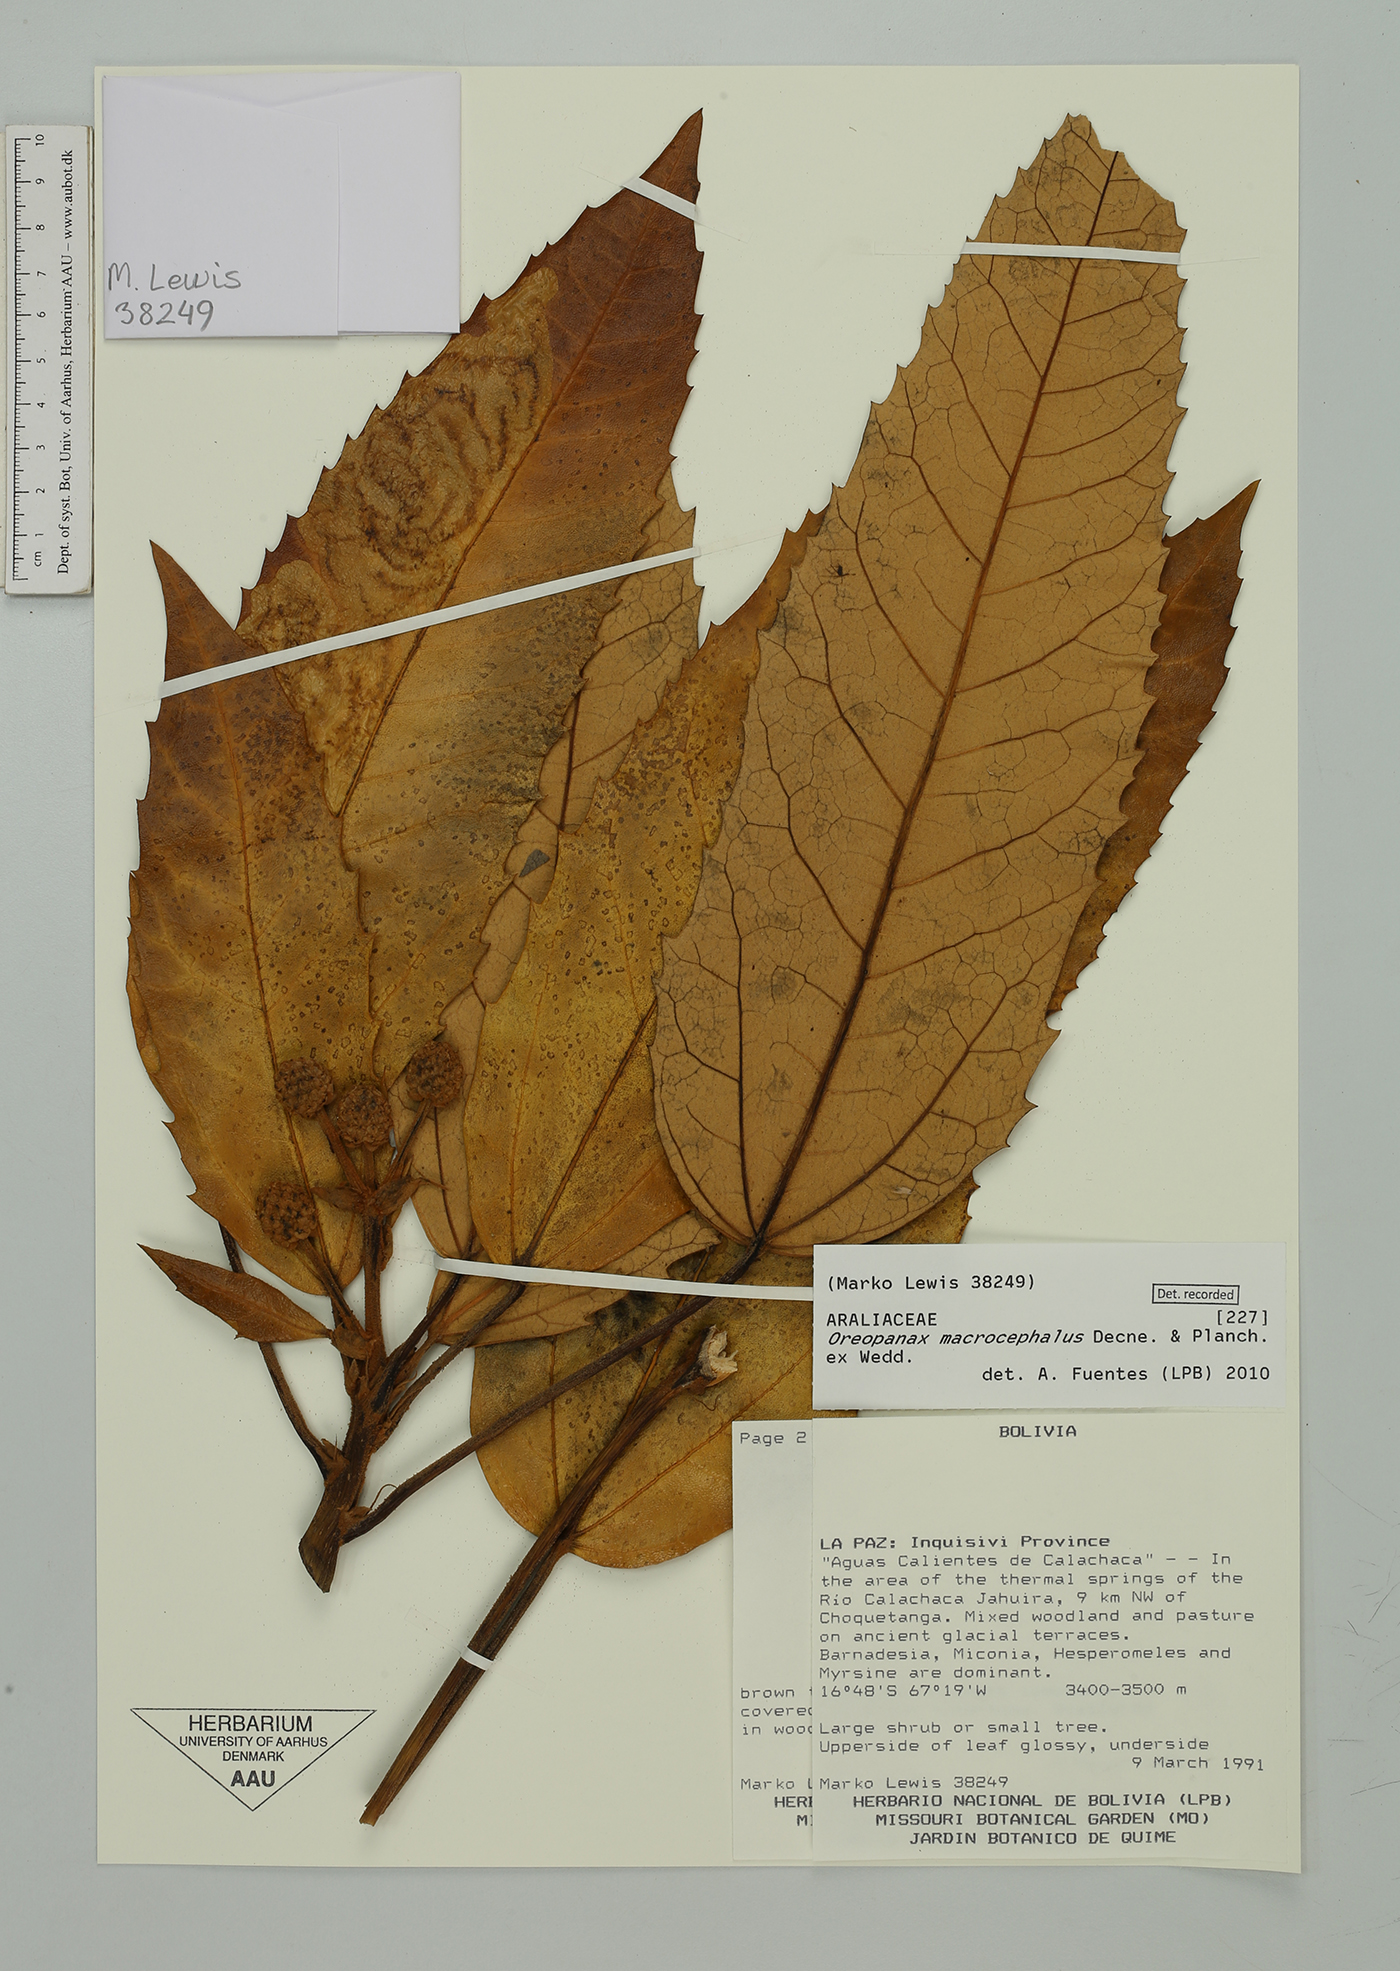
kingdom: Plantae
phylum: Tracheophyta
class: Magnoliopsida
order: Apiales
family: Araliaceae
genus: Oreopanax
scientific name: Oreopanax macrocephalus
